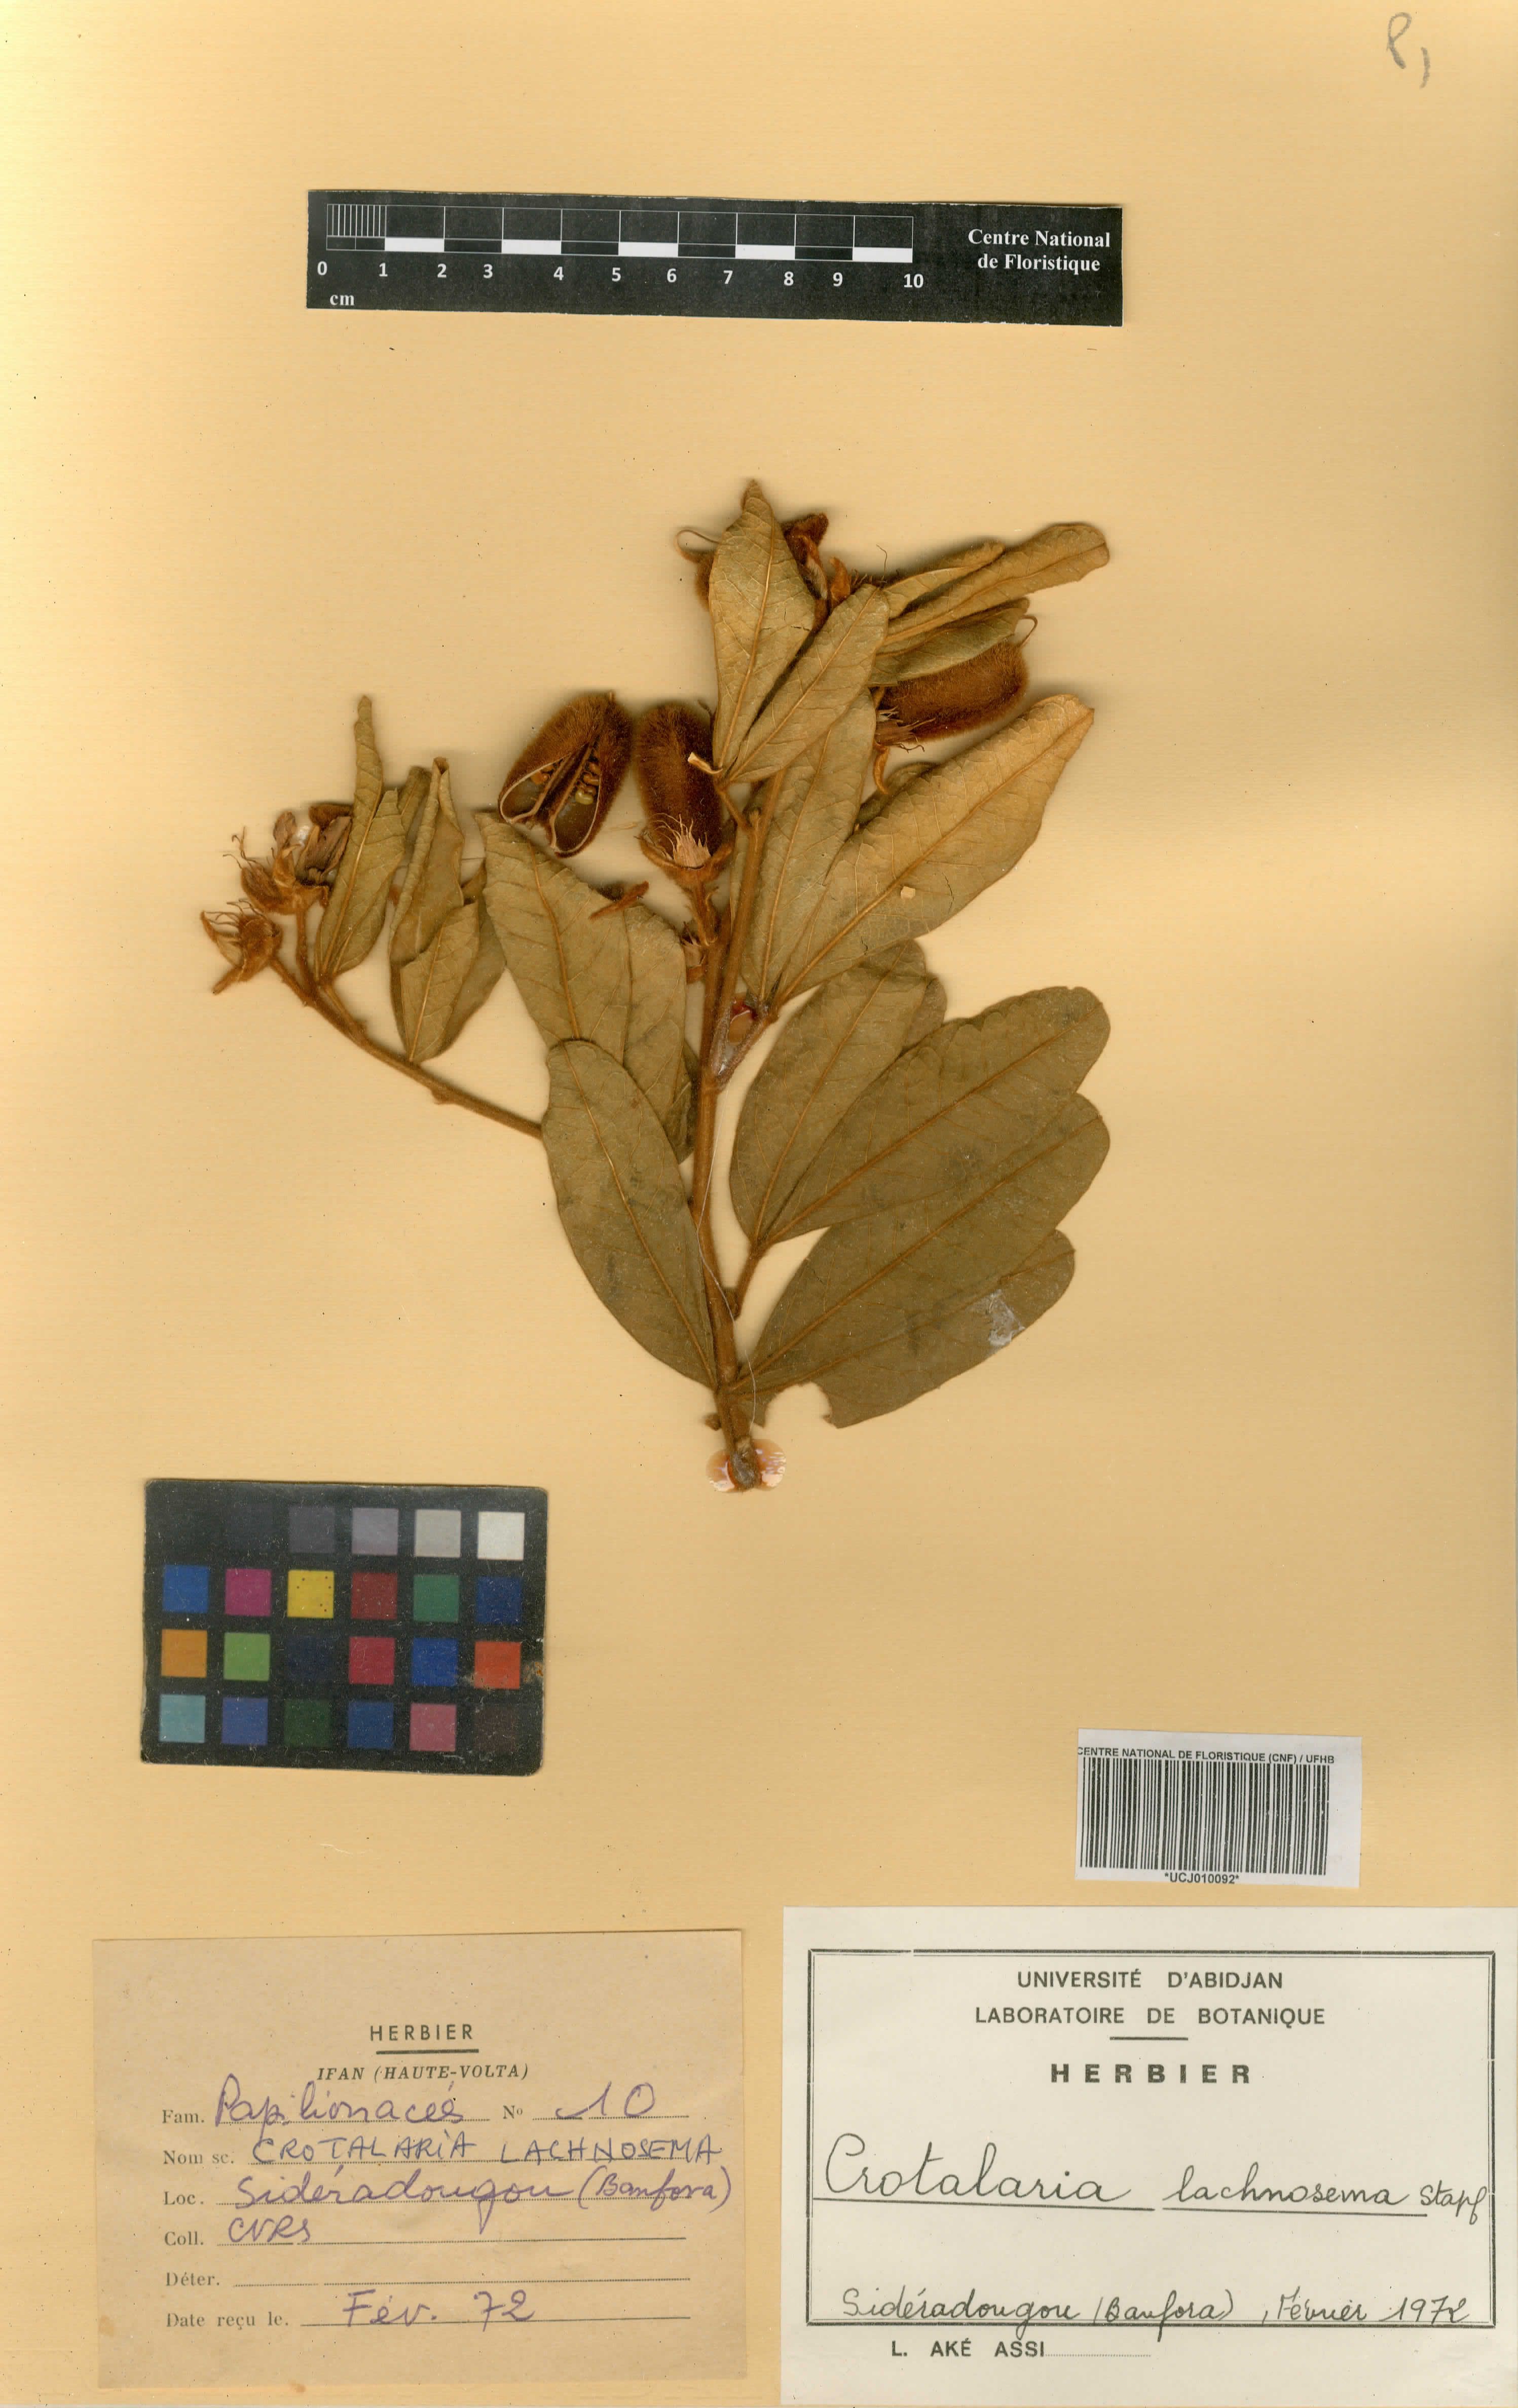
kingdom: Plantae
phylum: Tracheophyta
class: Magnoliopsida
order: Fabales
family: Fabaceae
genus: Crotalaria
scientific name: Crotalaria lachnosema
